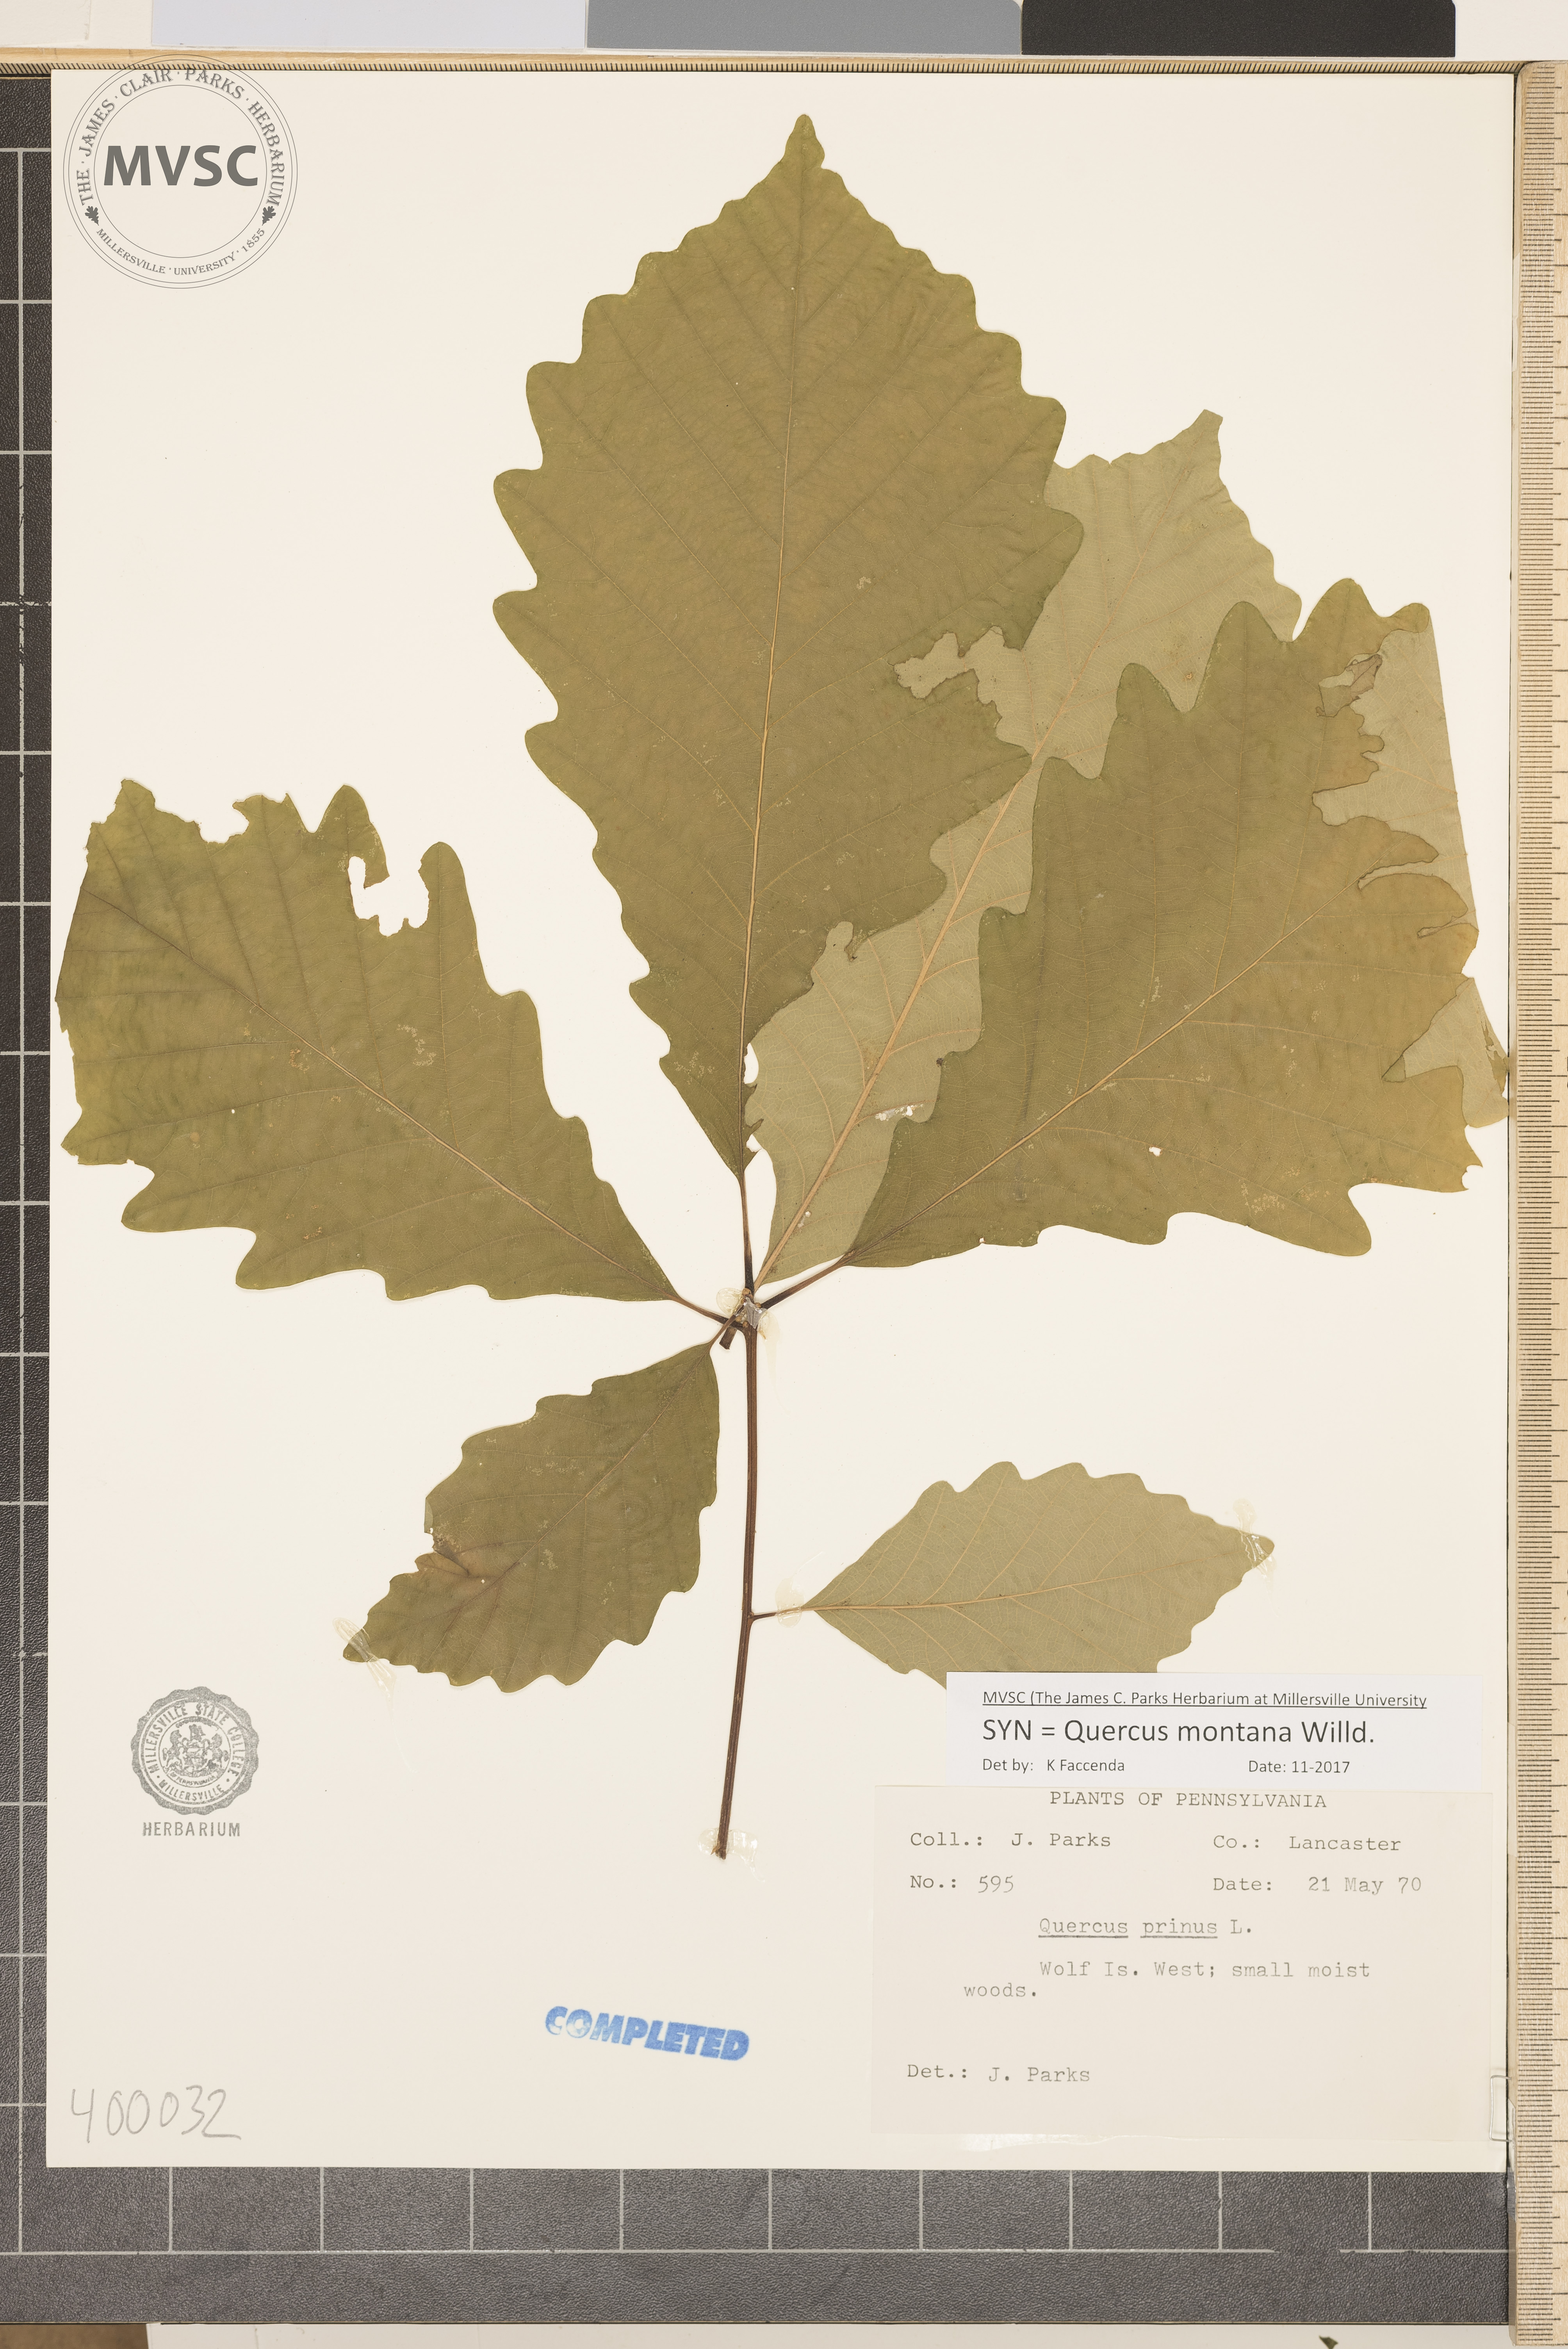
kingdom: Plantae
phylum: Tracheophyta
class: Magnoliopsida
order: Fagales
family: Fagaceae
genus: Quercus
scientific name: Quercus montana
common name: chestnut oak
